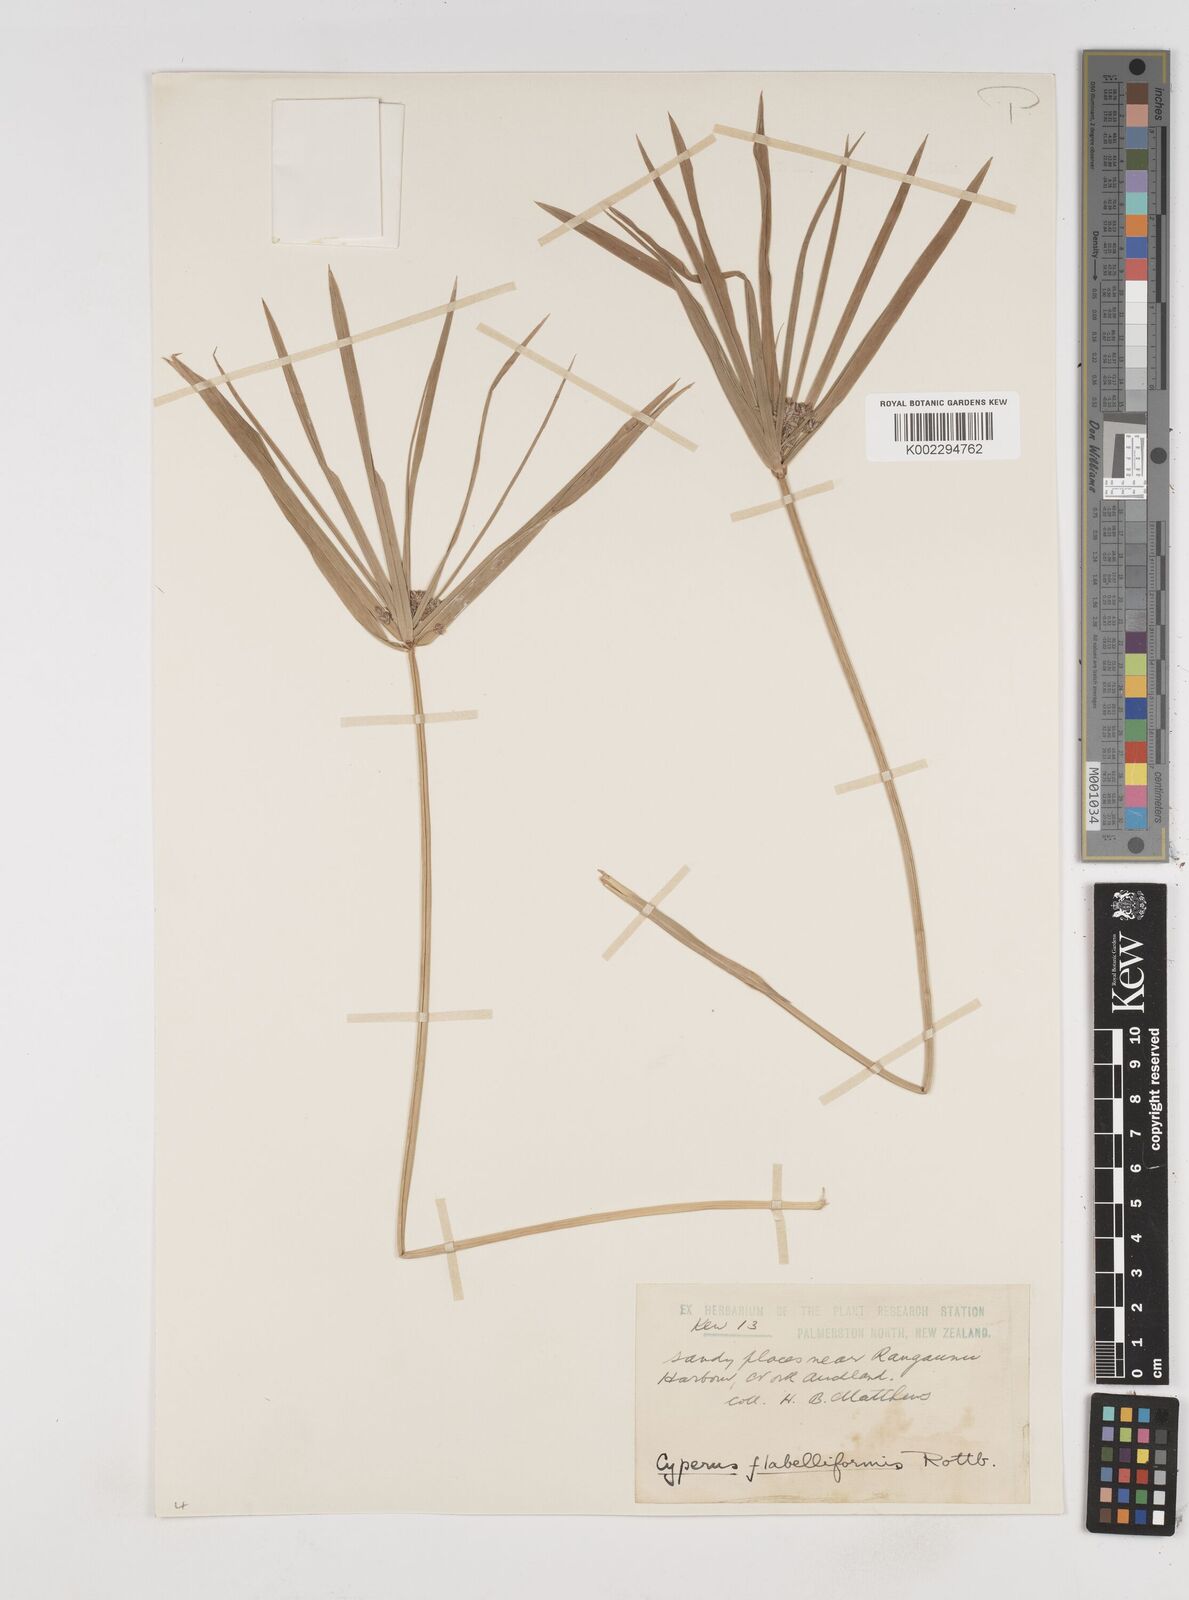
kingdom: Plantae
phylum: Tracheophyta
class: Liliopsida
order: Poales
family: Cyperaceae
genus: Cyperus
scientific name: Cyperus alternifolius
